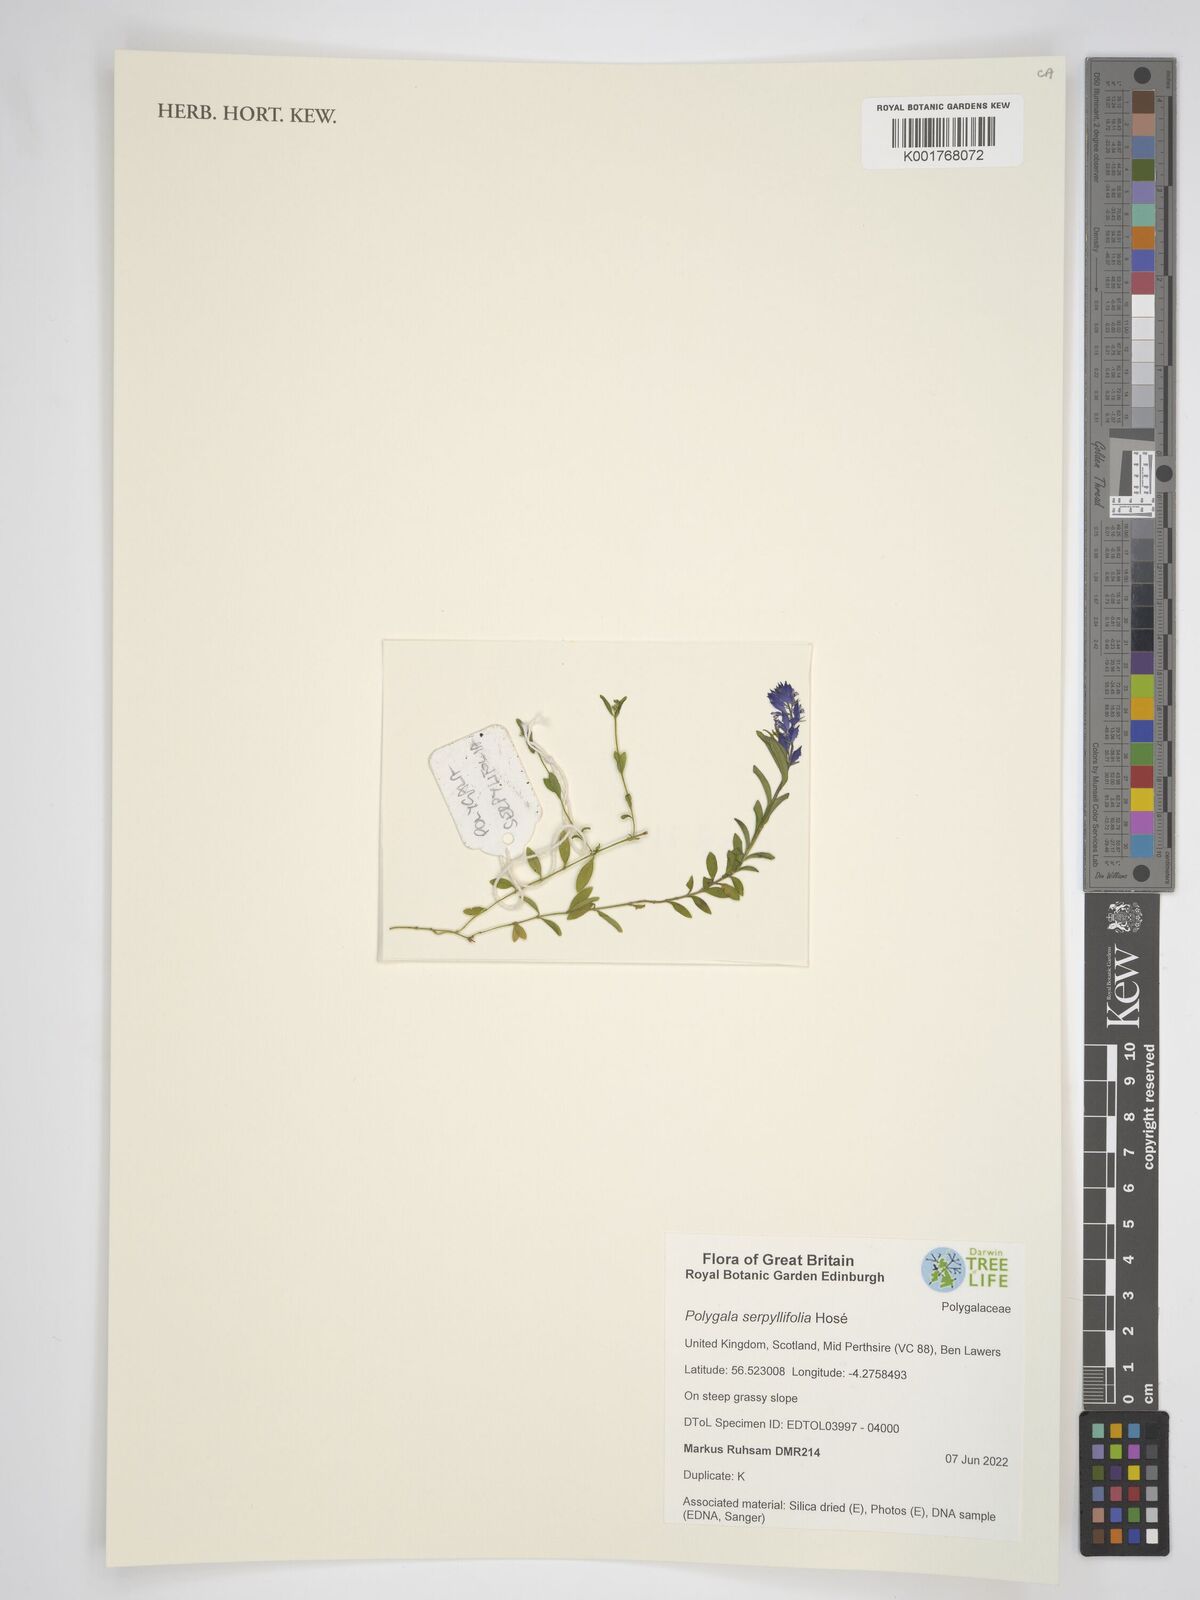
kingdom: Plantae
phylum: Tracheophyta
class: Magnoliopsida
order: Fabales
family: Polygalaceae
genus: Polygala
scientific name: Polygala serpyllifolia
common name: Heath milkwort
